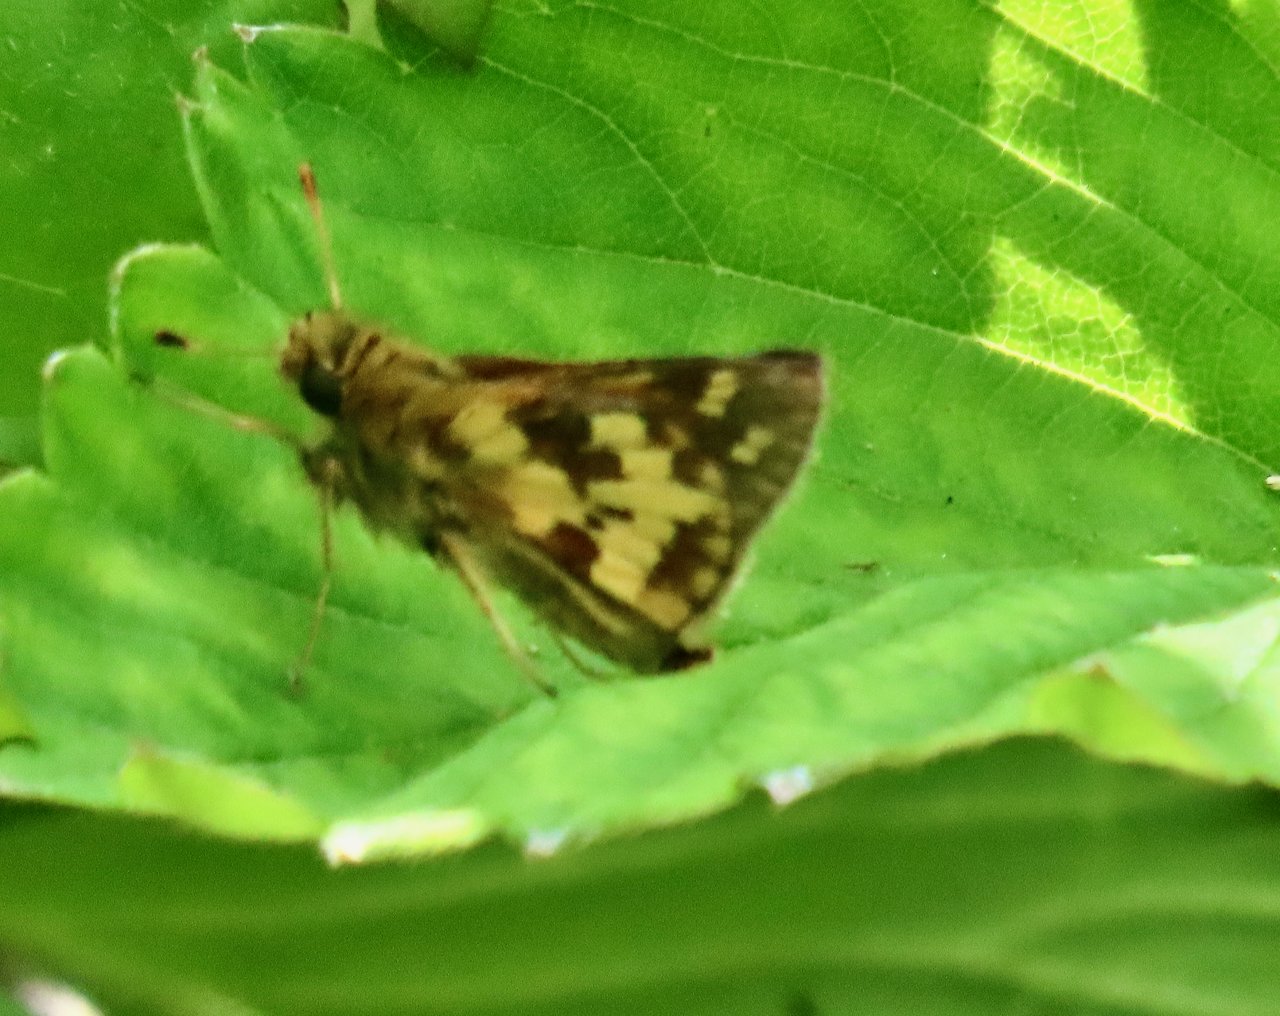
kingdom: Animalia
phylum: Arthropoda
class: Insecta
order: Lepidoptera
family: Hesperiidae
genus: Polites
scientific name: Polites coras
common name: Peck's Skipper
